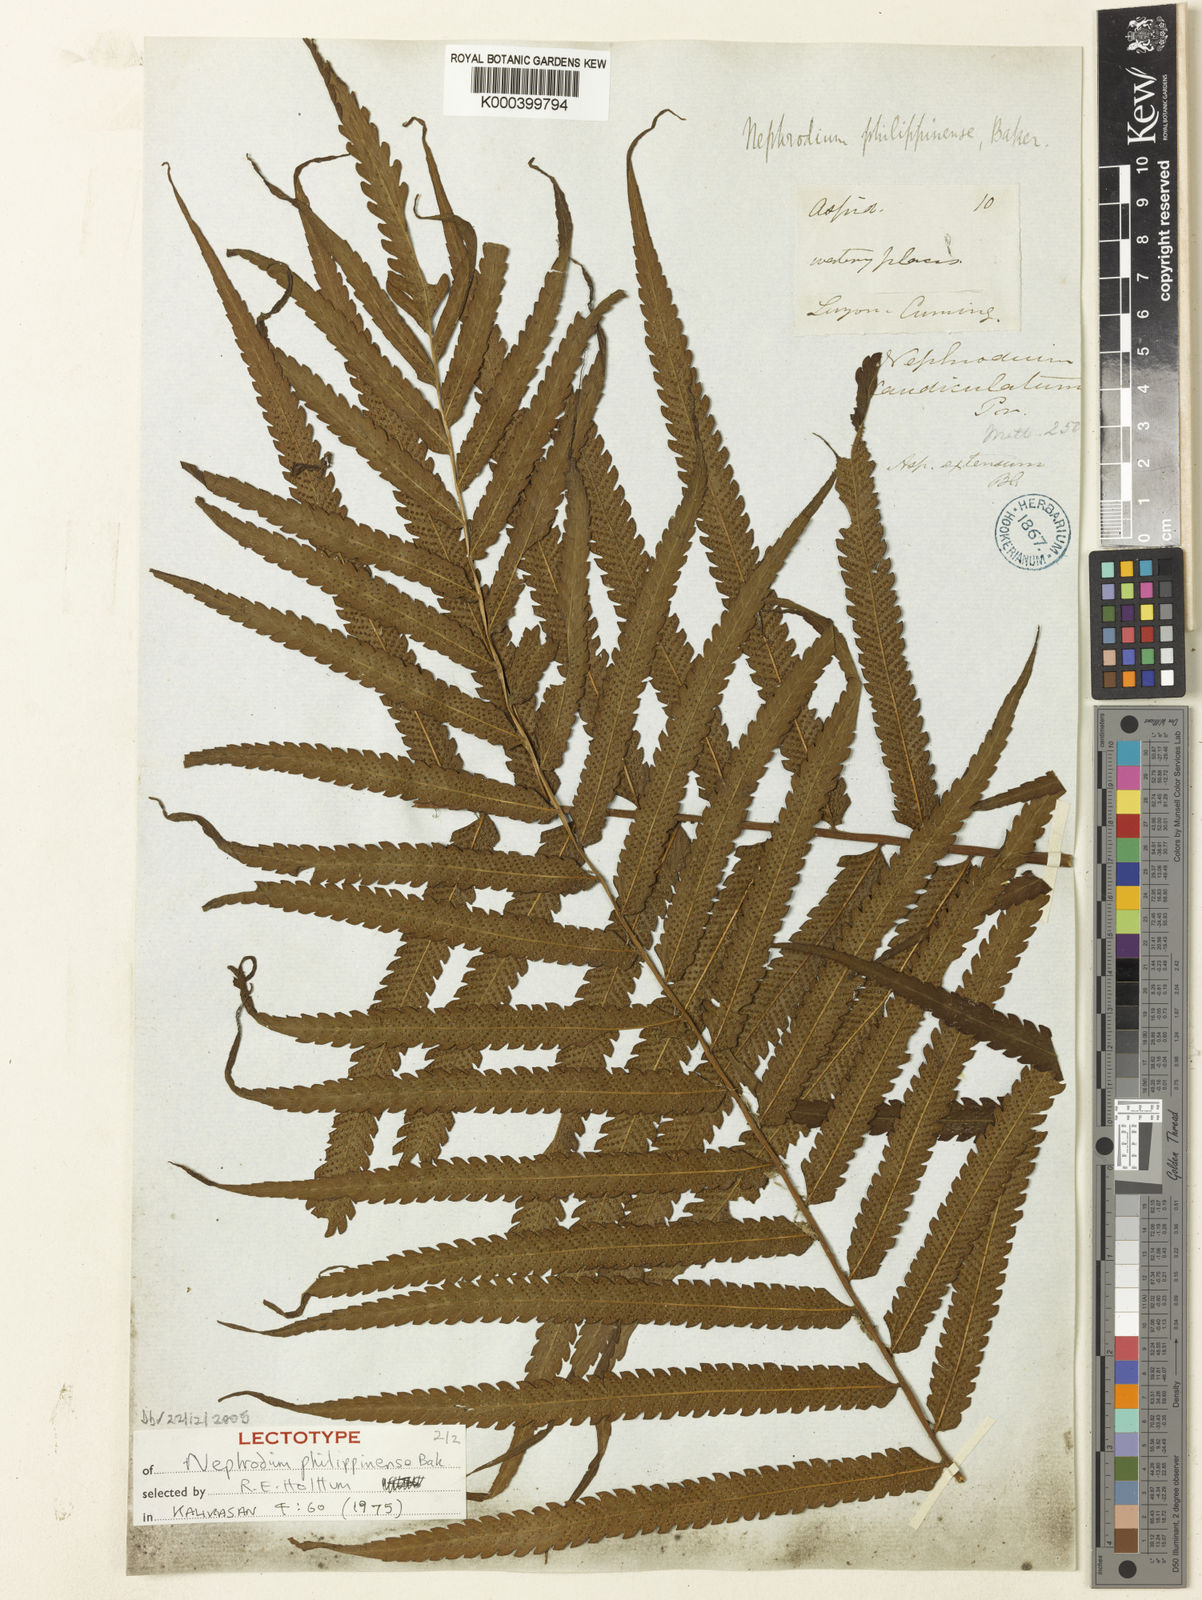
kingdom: Plantae
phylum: Tracheophyta
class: Polypodiopsida
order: Polypodiales
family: Thelypteridaceae
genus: Sphaerostephanos
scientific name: Sphaerostephanos productus
